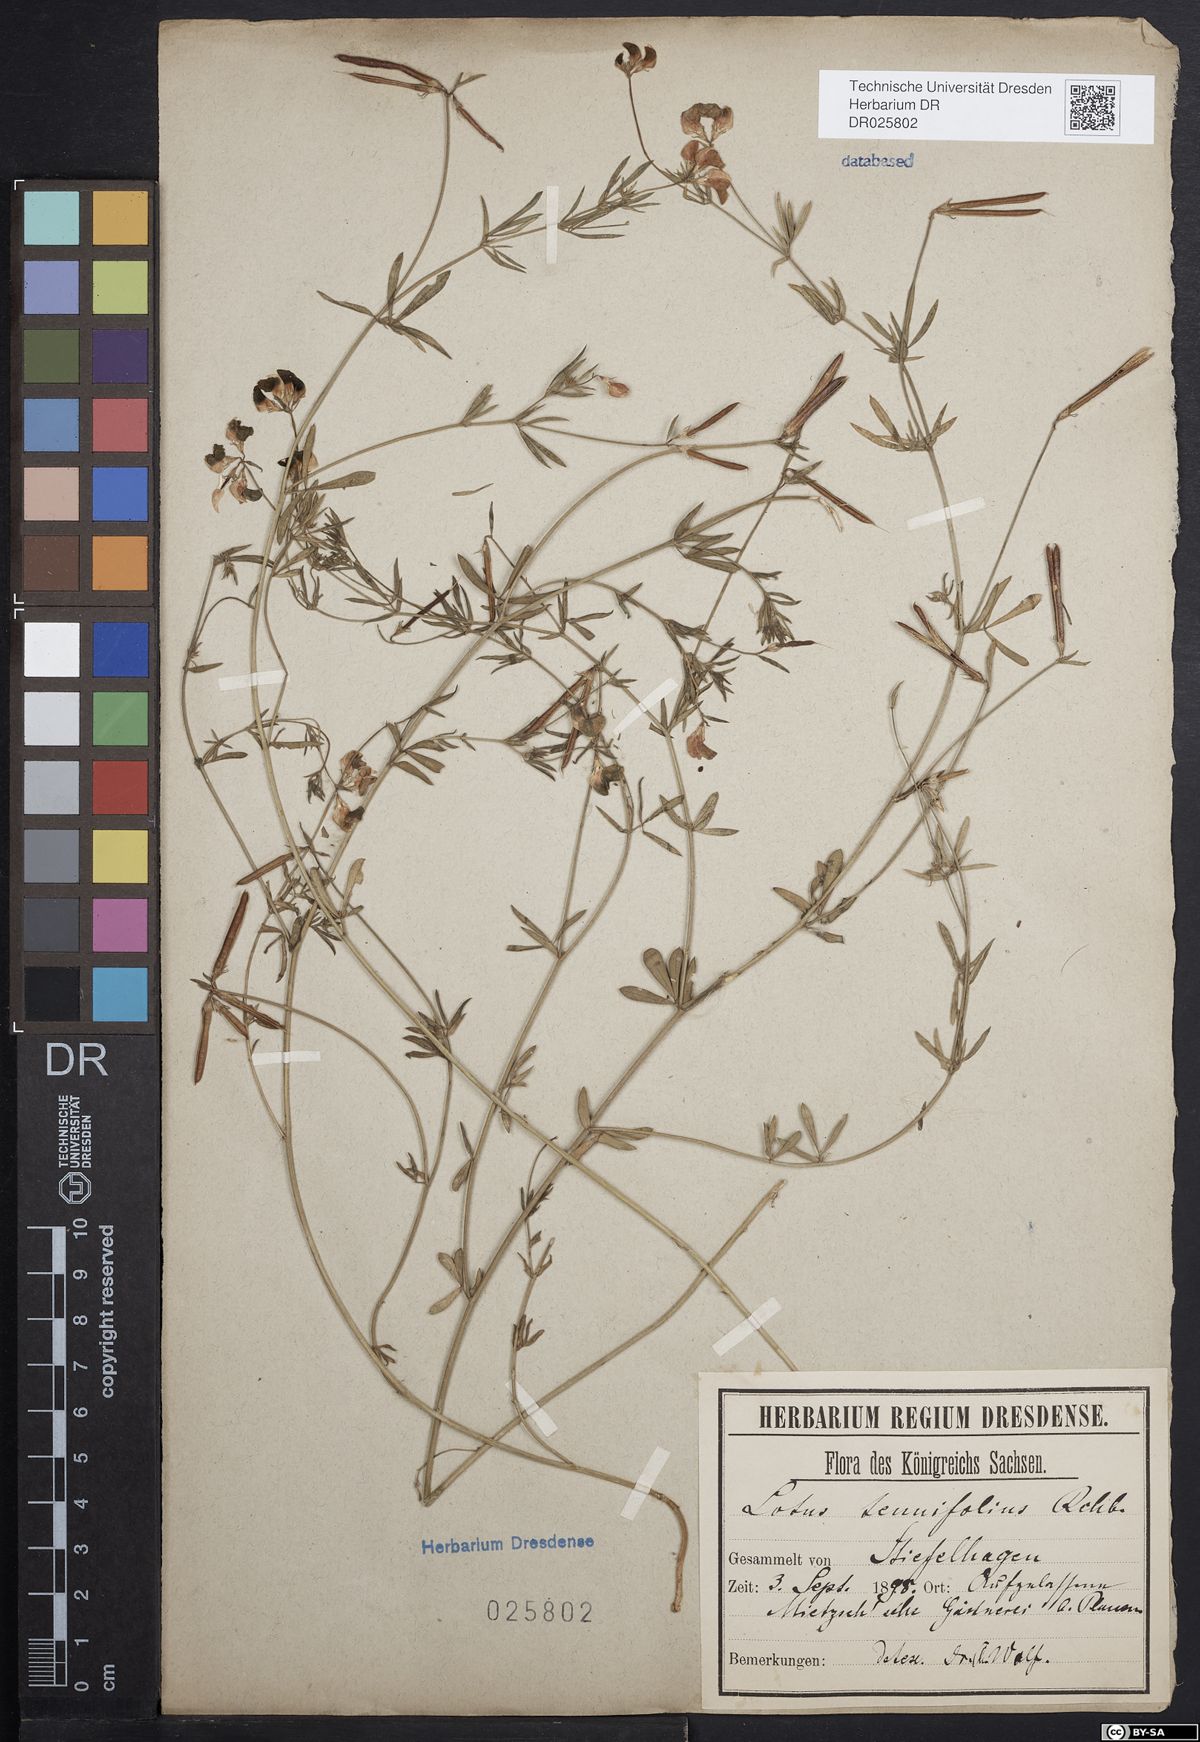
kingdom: Plantae
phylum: Tracheophyta
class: Magnoliopsida
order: Fabales
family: Fabaceae
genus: Lotus
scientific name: Lotus tenuis
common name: Narrow-leaved bird's-foot-trefoil
